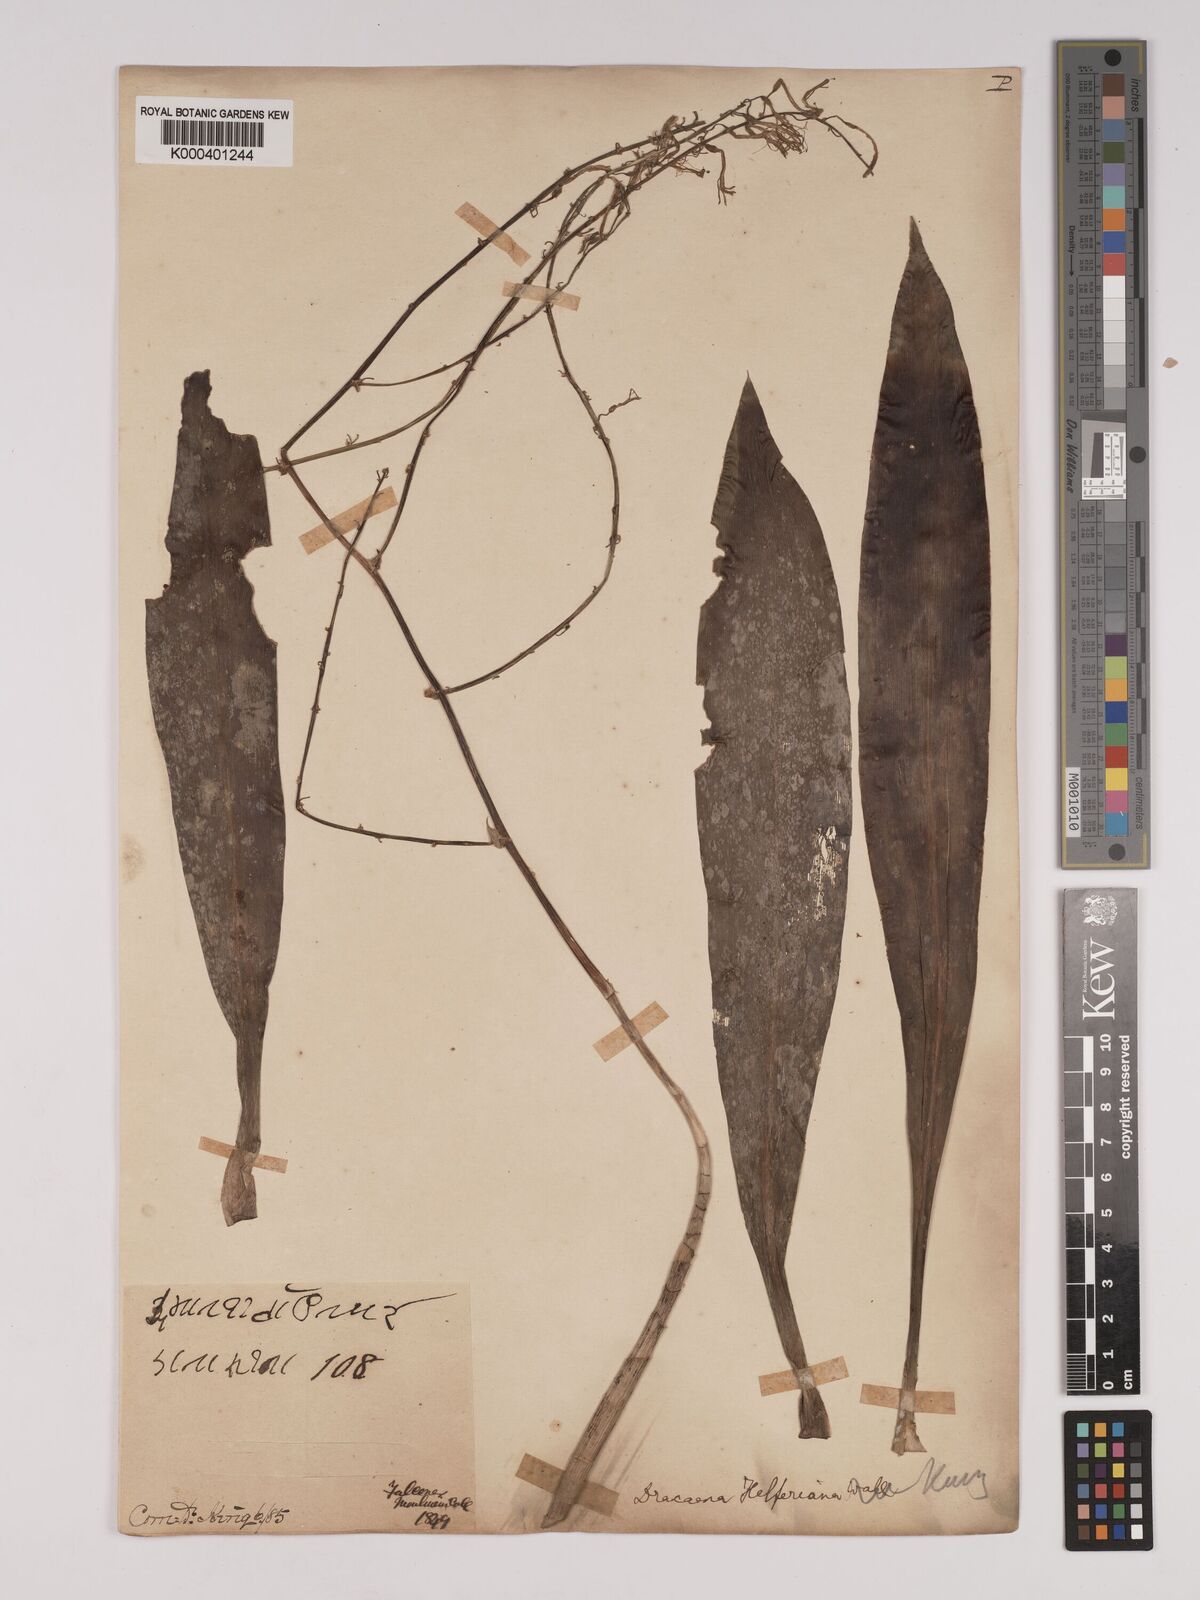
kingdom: Plantae
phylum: Tracheophyta
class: Liliopsida
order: Asparagales
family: Asparagaceae
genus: Dracaena
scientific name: Dracaena griffithii
